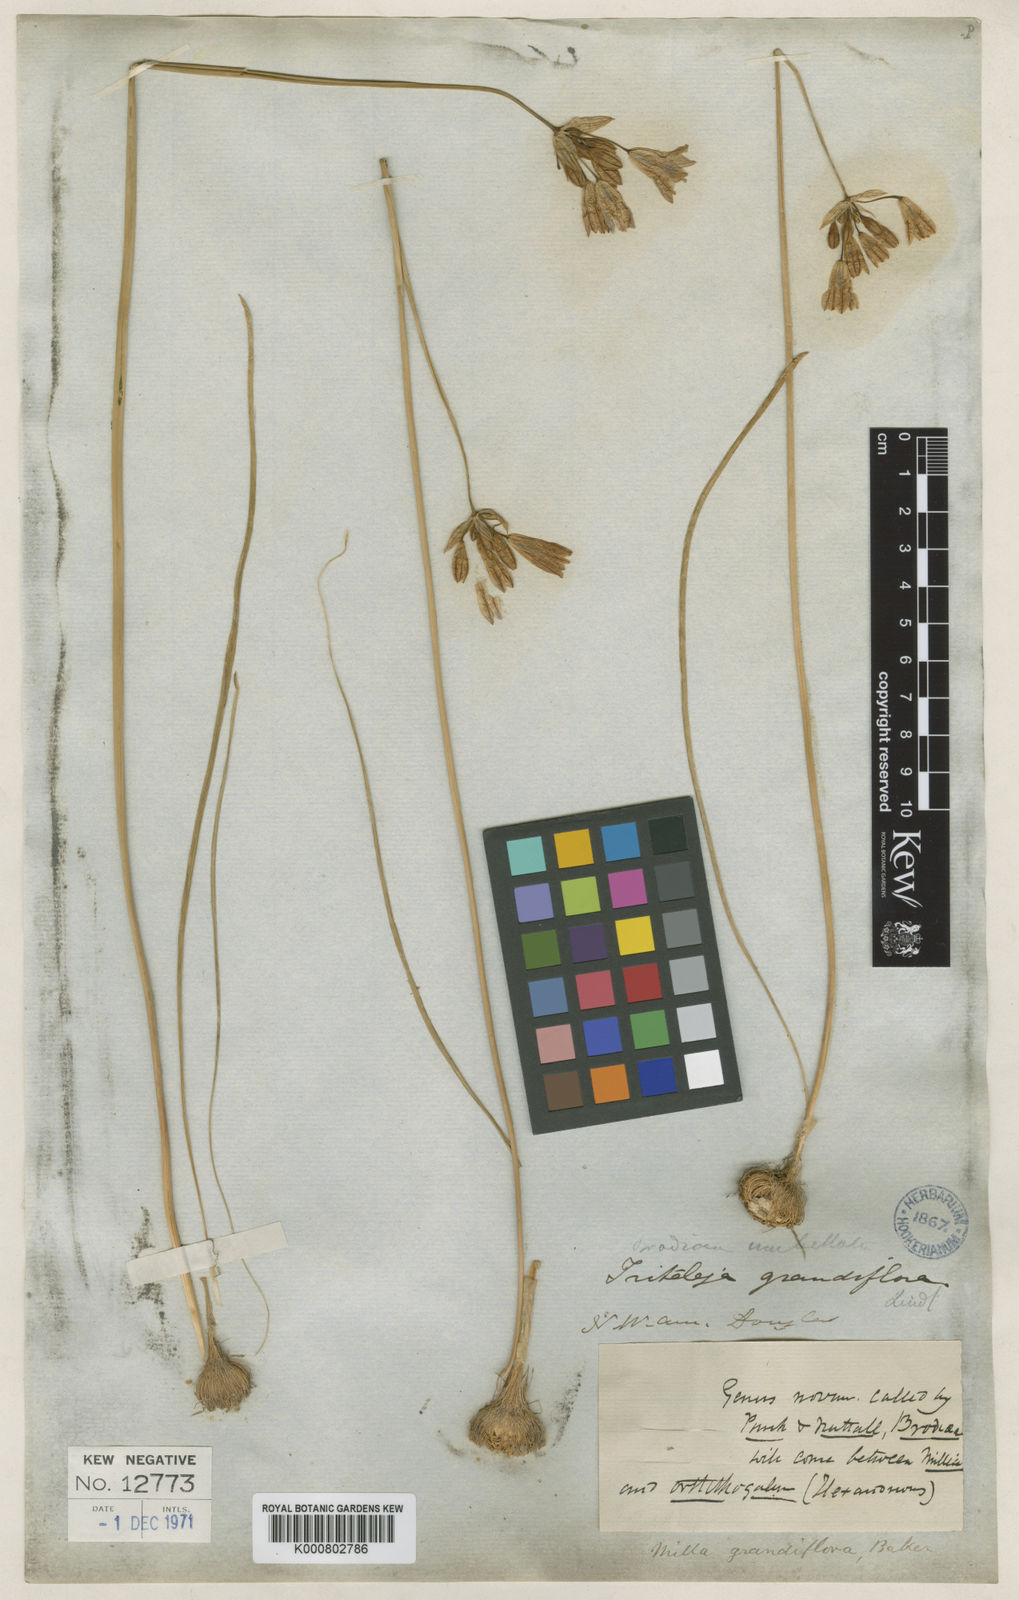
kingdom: Plantae
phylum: Tracheophyta
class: Liliopsida
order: Asparagales
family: Asparagaceae
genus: Triteleia
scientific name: Triteleia grandiflora
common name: Wild hyacinth
